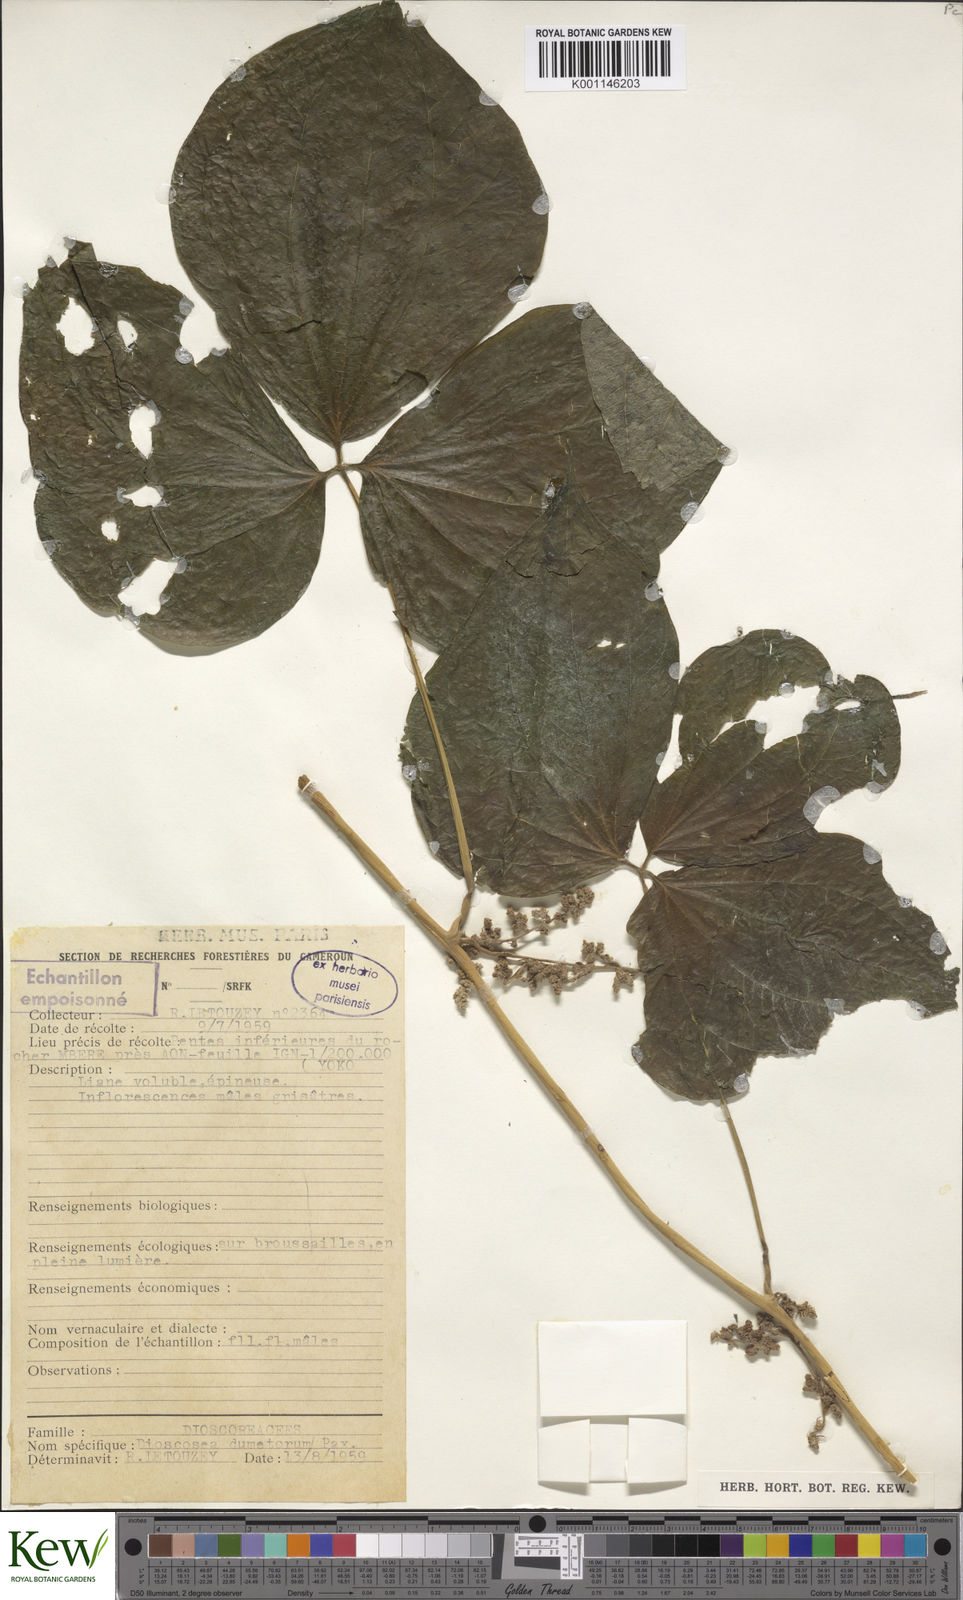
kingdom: Plantae
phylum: Tracheophyta
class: Liliopsida
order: Dioscoreales
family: Dioscoreaceae
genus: Dioscorea
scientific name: Dioscorea dumetorum
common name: African bitter yam
